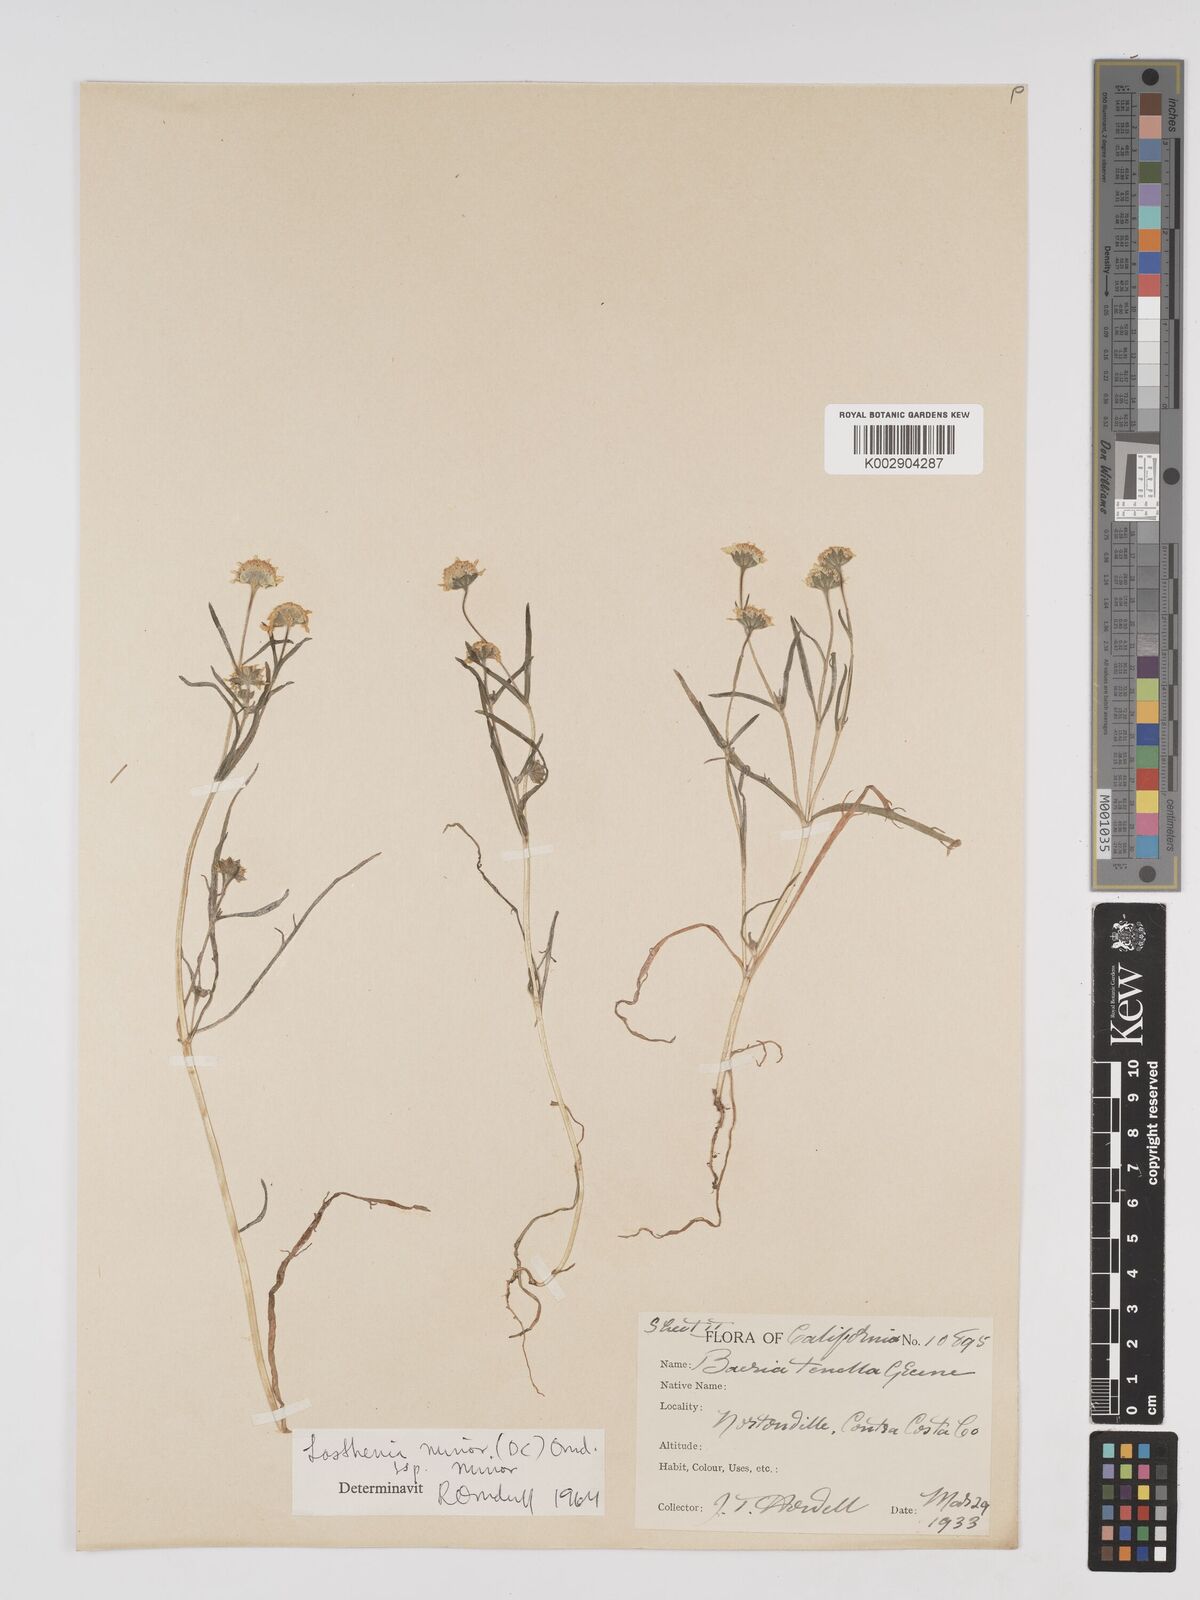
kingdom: Plantae
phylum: Tracheophyta
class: Magnoliopsida
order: Asterales
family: Asteraceae
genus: Lasthenia
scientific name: Lasthenia minor
